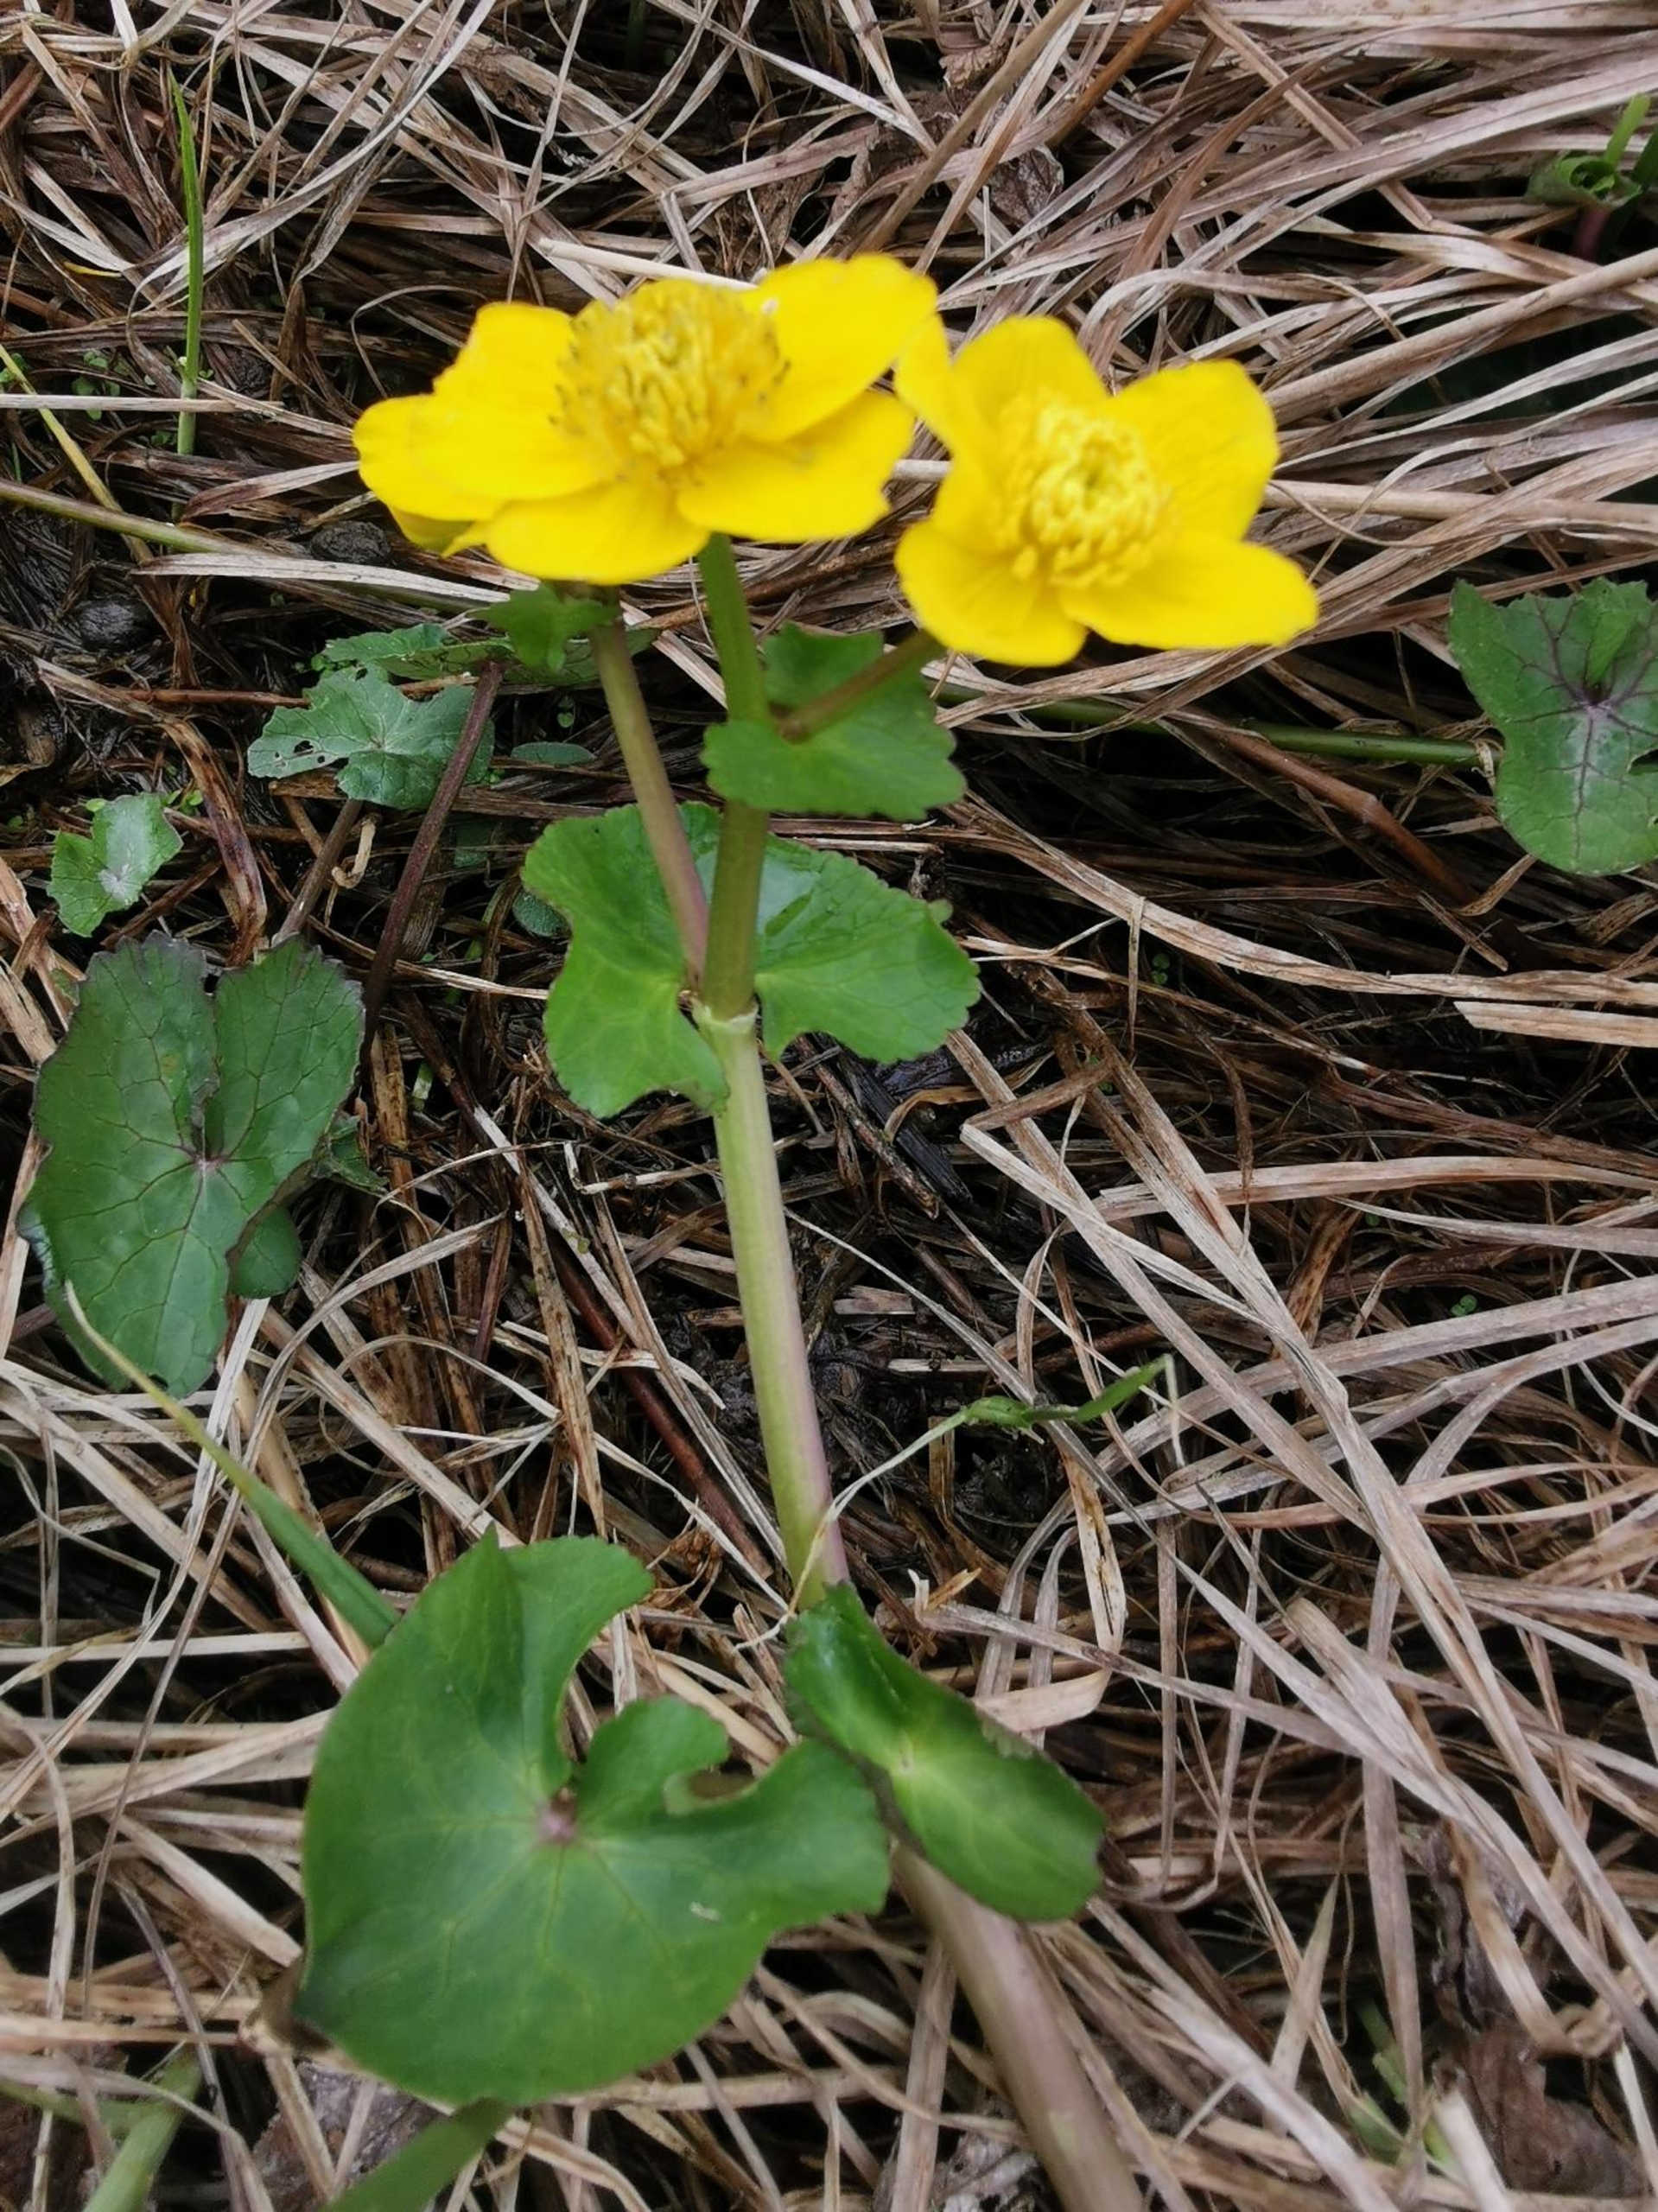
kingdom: Plantae
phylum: Tracheophyta
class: Magnoliopsida
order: Ranunculales
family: Ranunculaceae
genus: Caltha
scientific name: Caltha palustris
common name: Eng-kabbeleje
